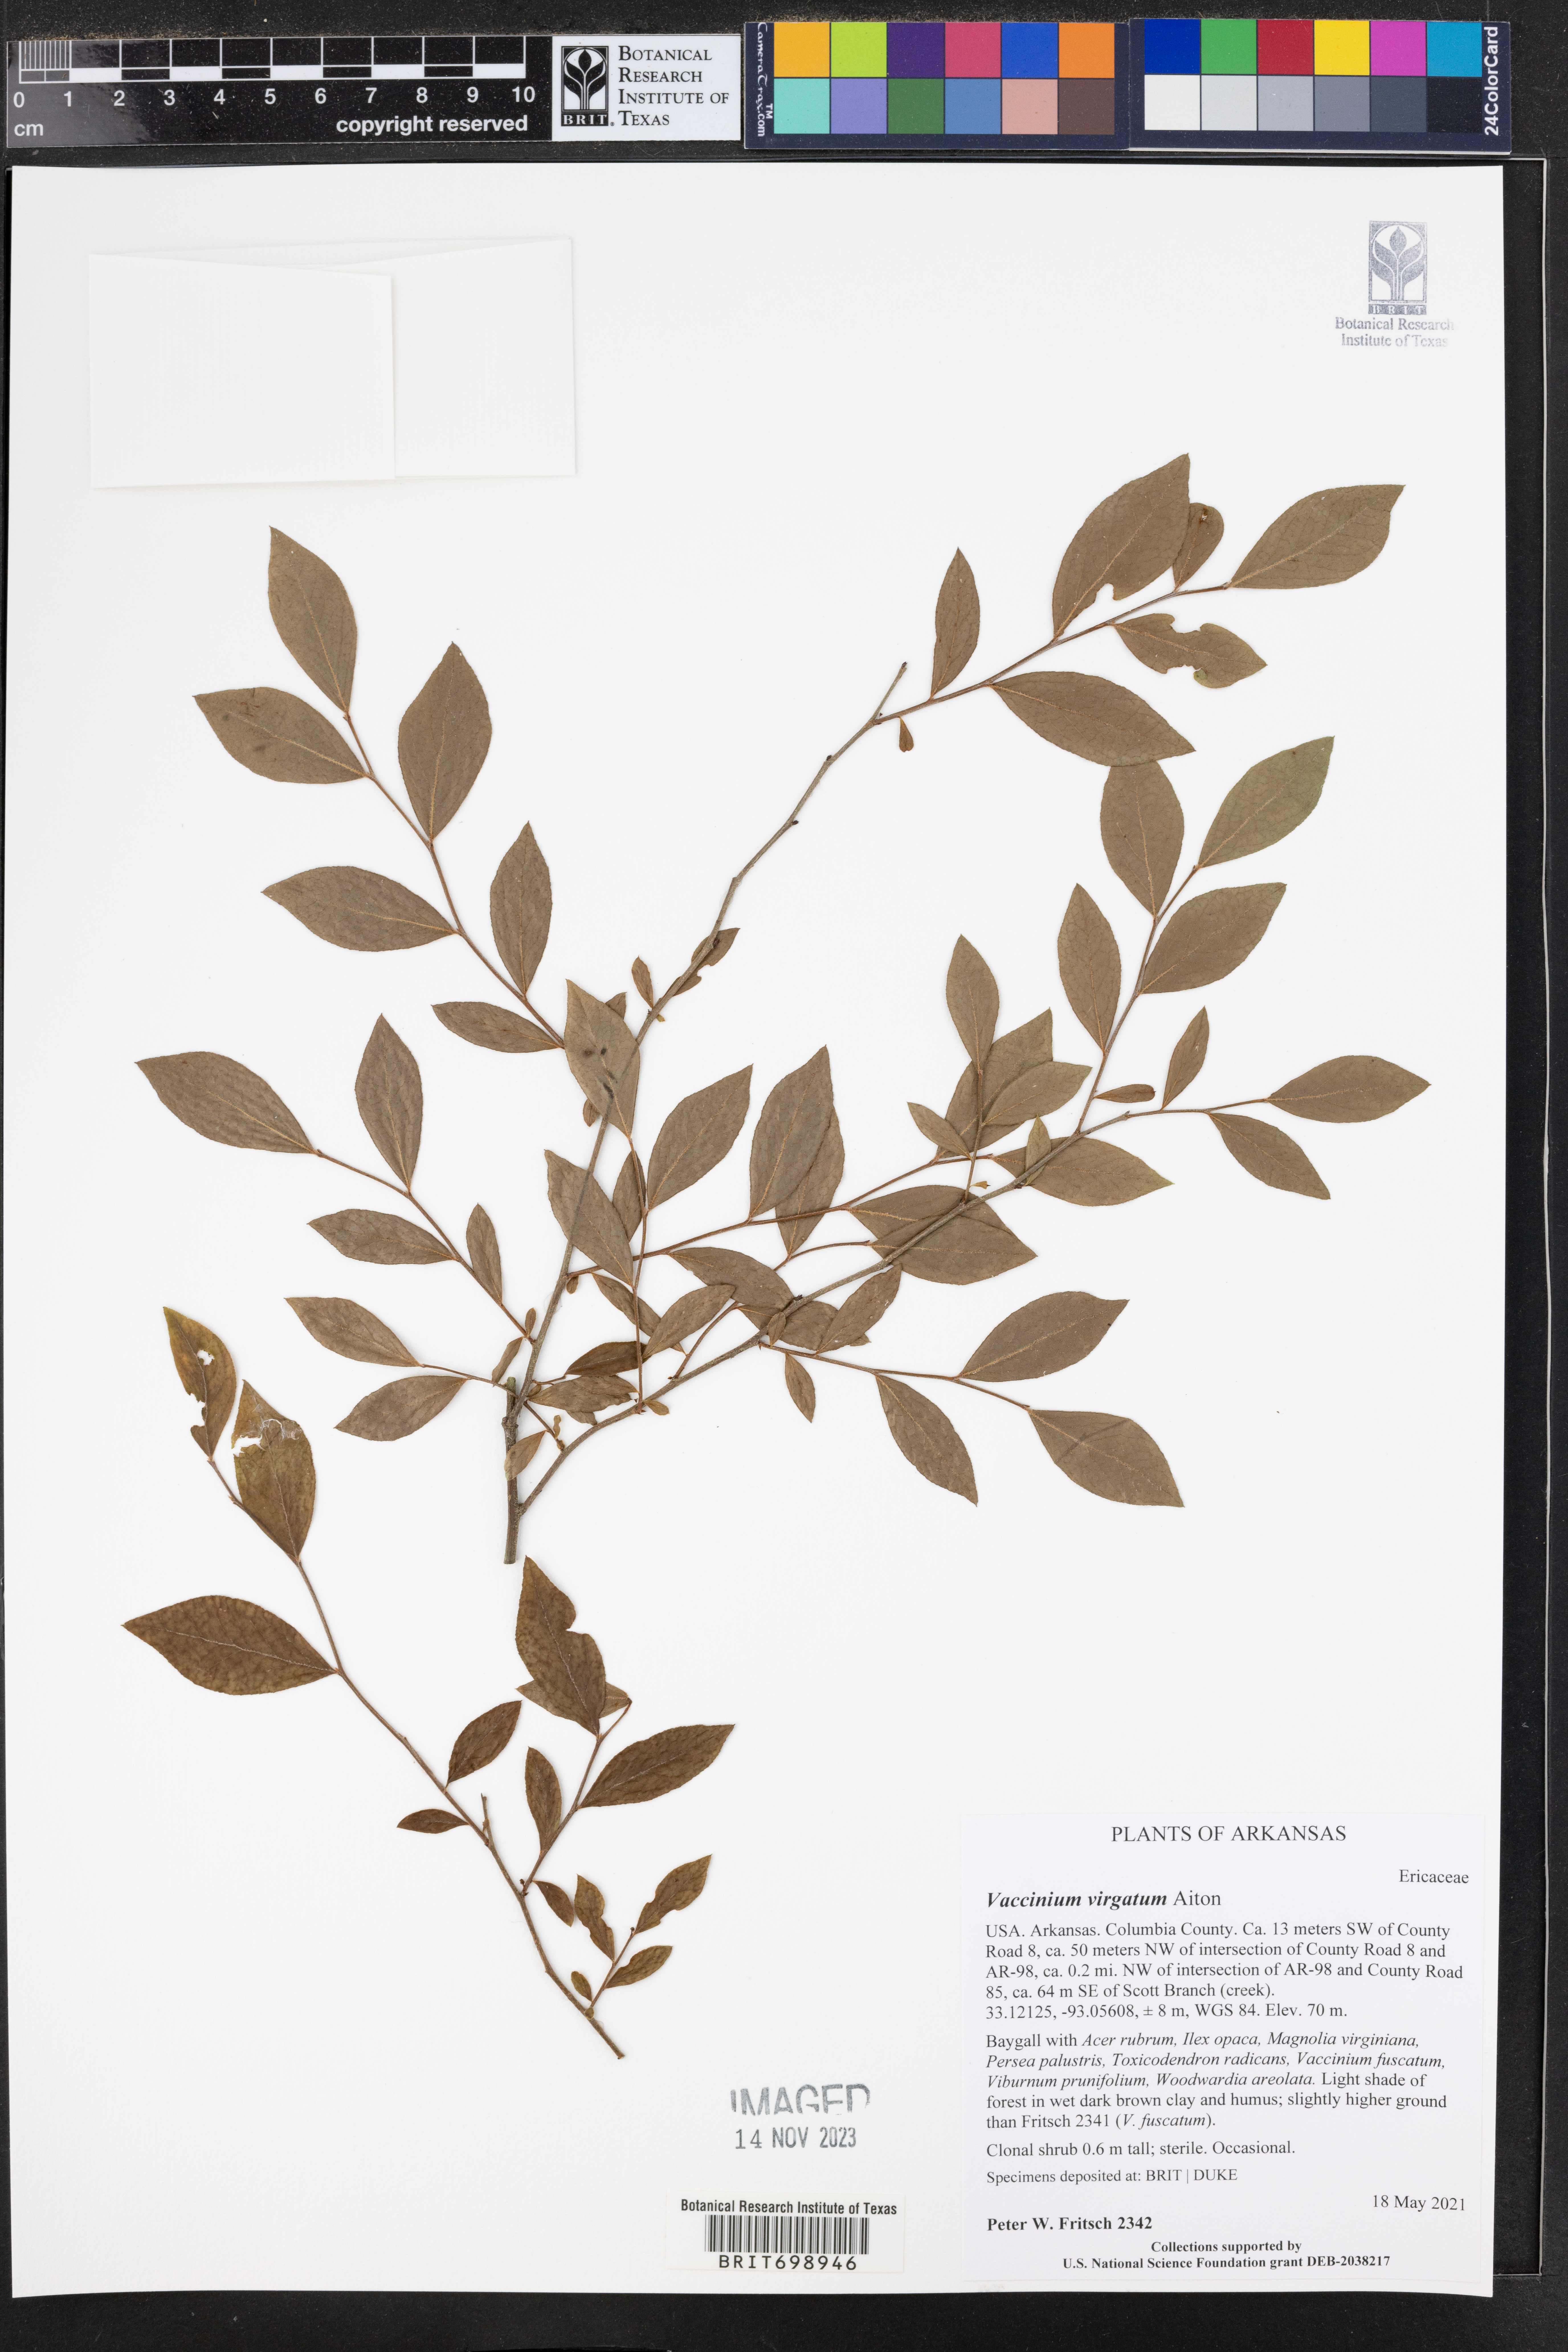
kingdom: Plantae
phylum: Tracheophyta
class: Magnoliopsida
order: Ericales
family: Ericaceae
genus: Vaccinium
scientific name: Vaccinium corymbosum
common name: Blueberry
